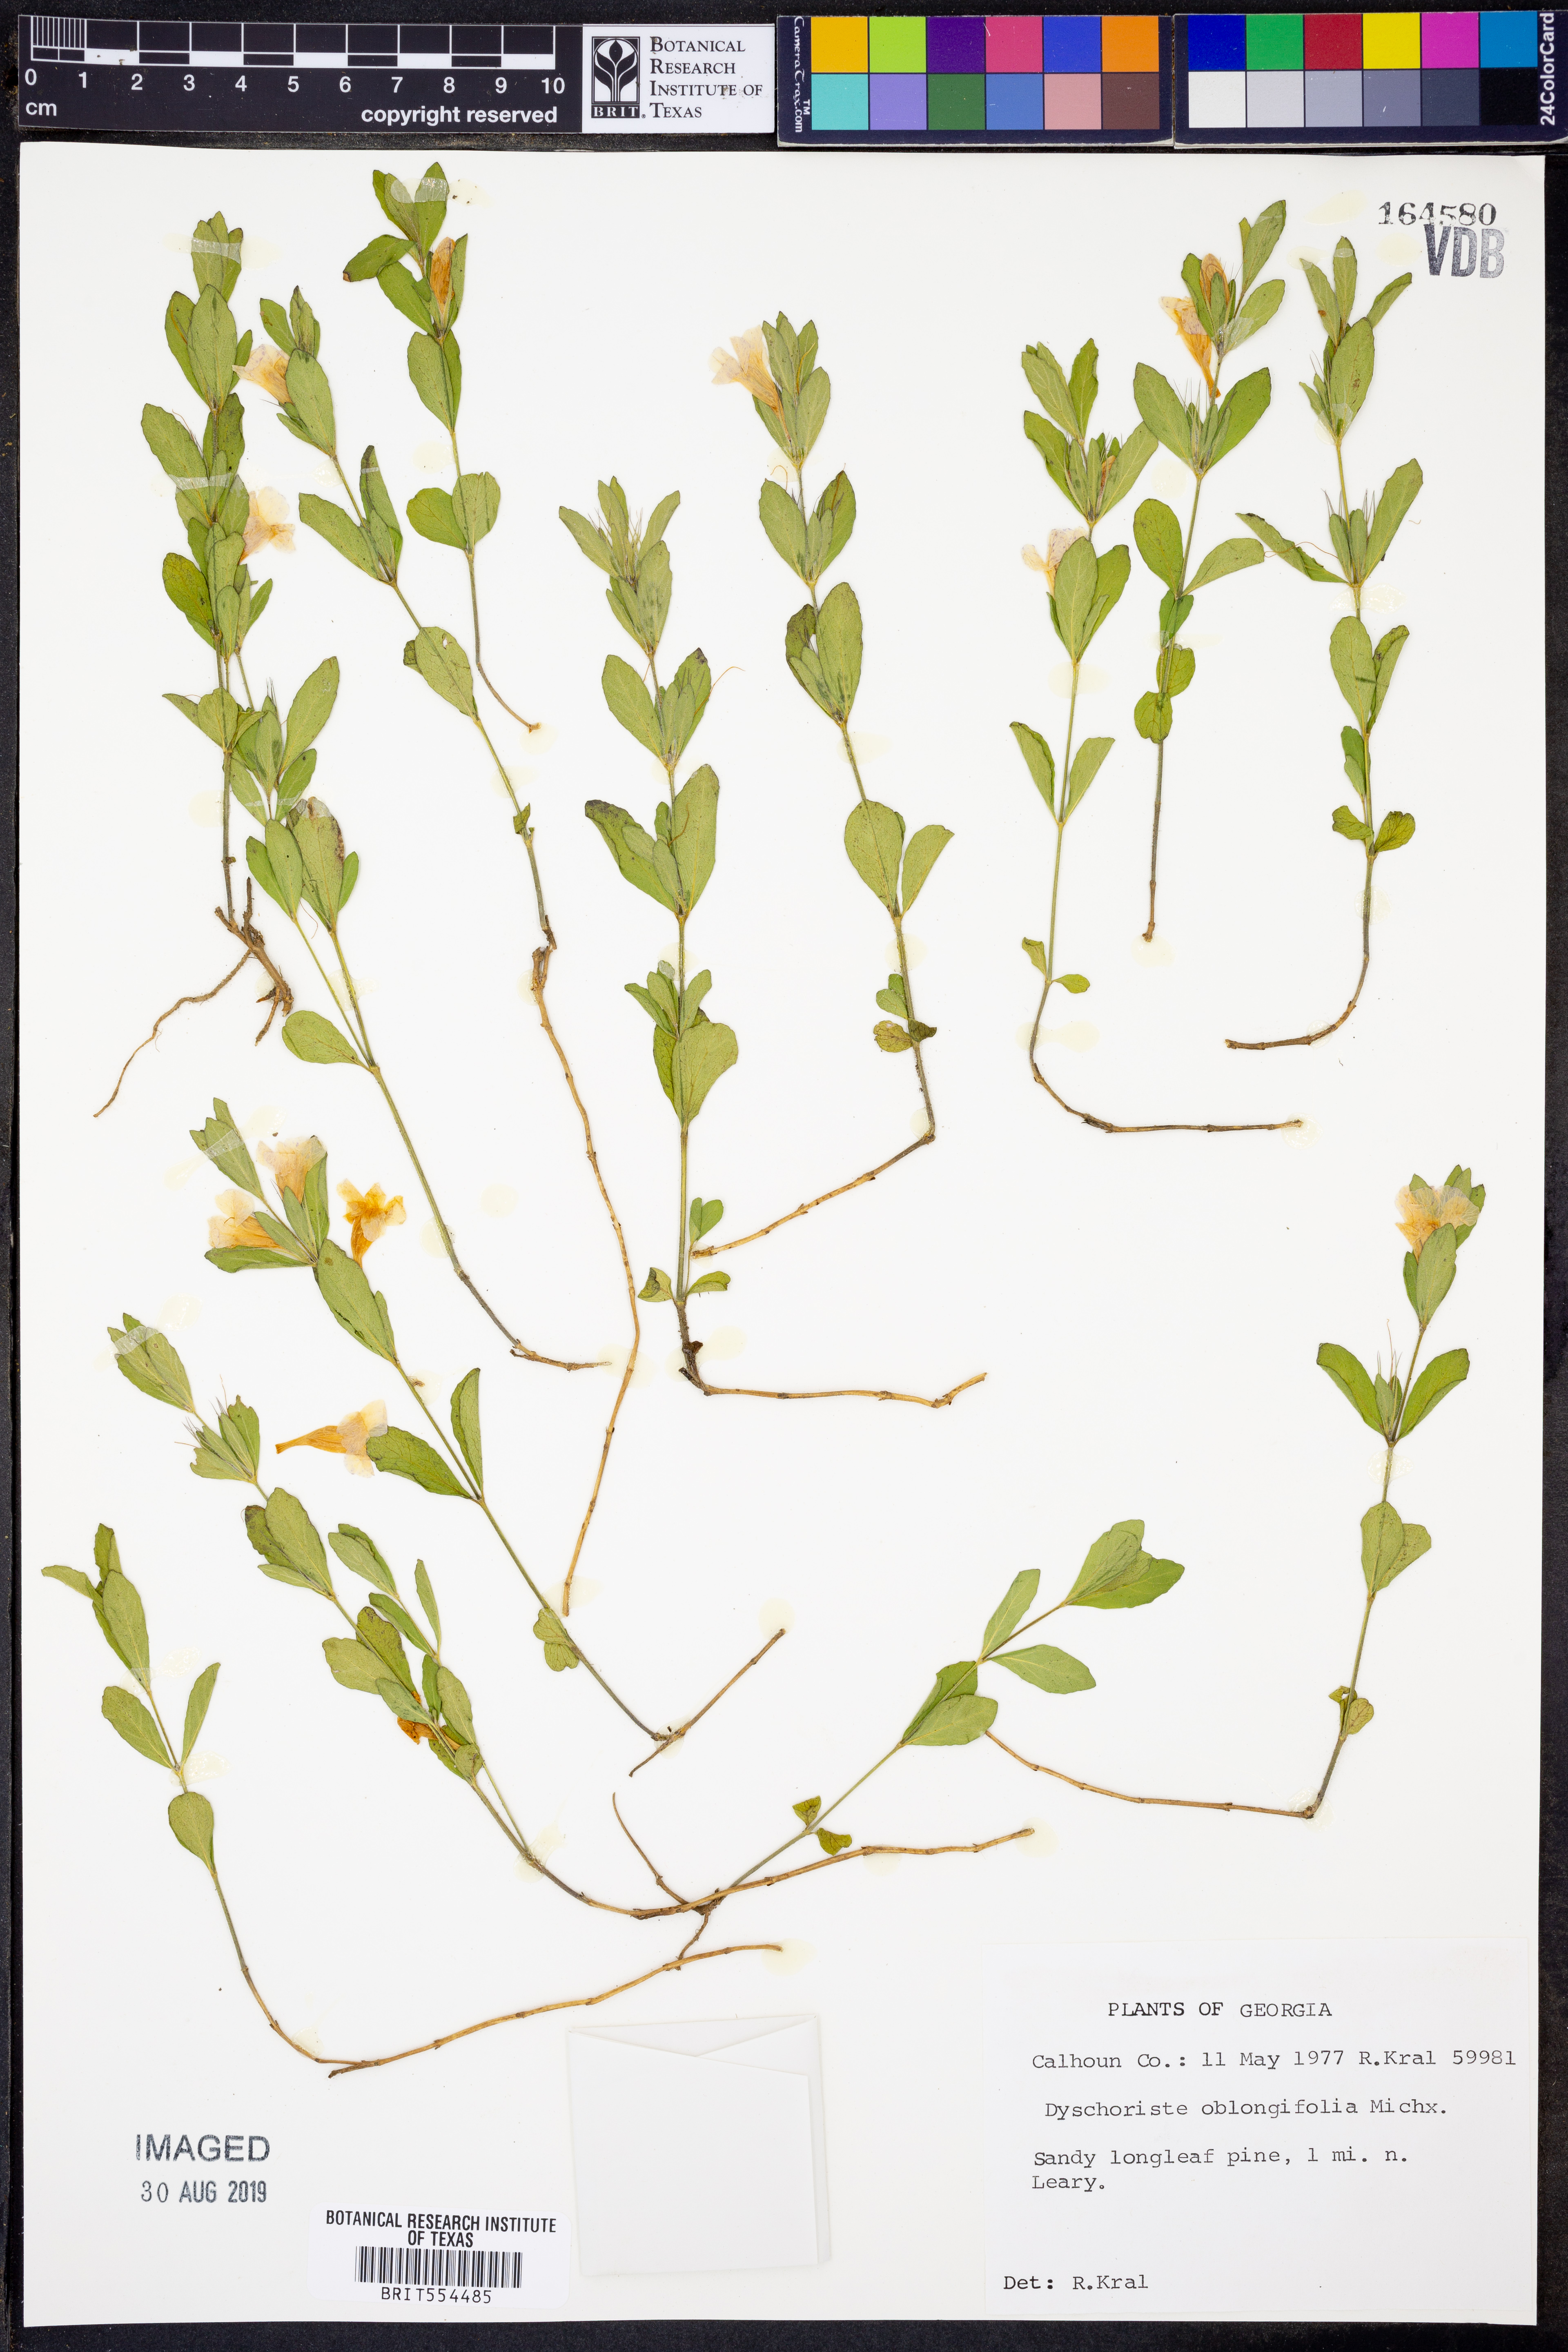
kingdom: Plantae
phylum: Tracheophyta
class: Magnoliopsida
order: Lamiales
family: Acanthaceae
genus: Dyschoriste
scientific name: Dyschoriste oblongifolia
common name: Blue twinflower
